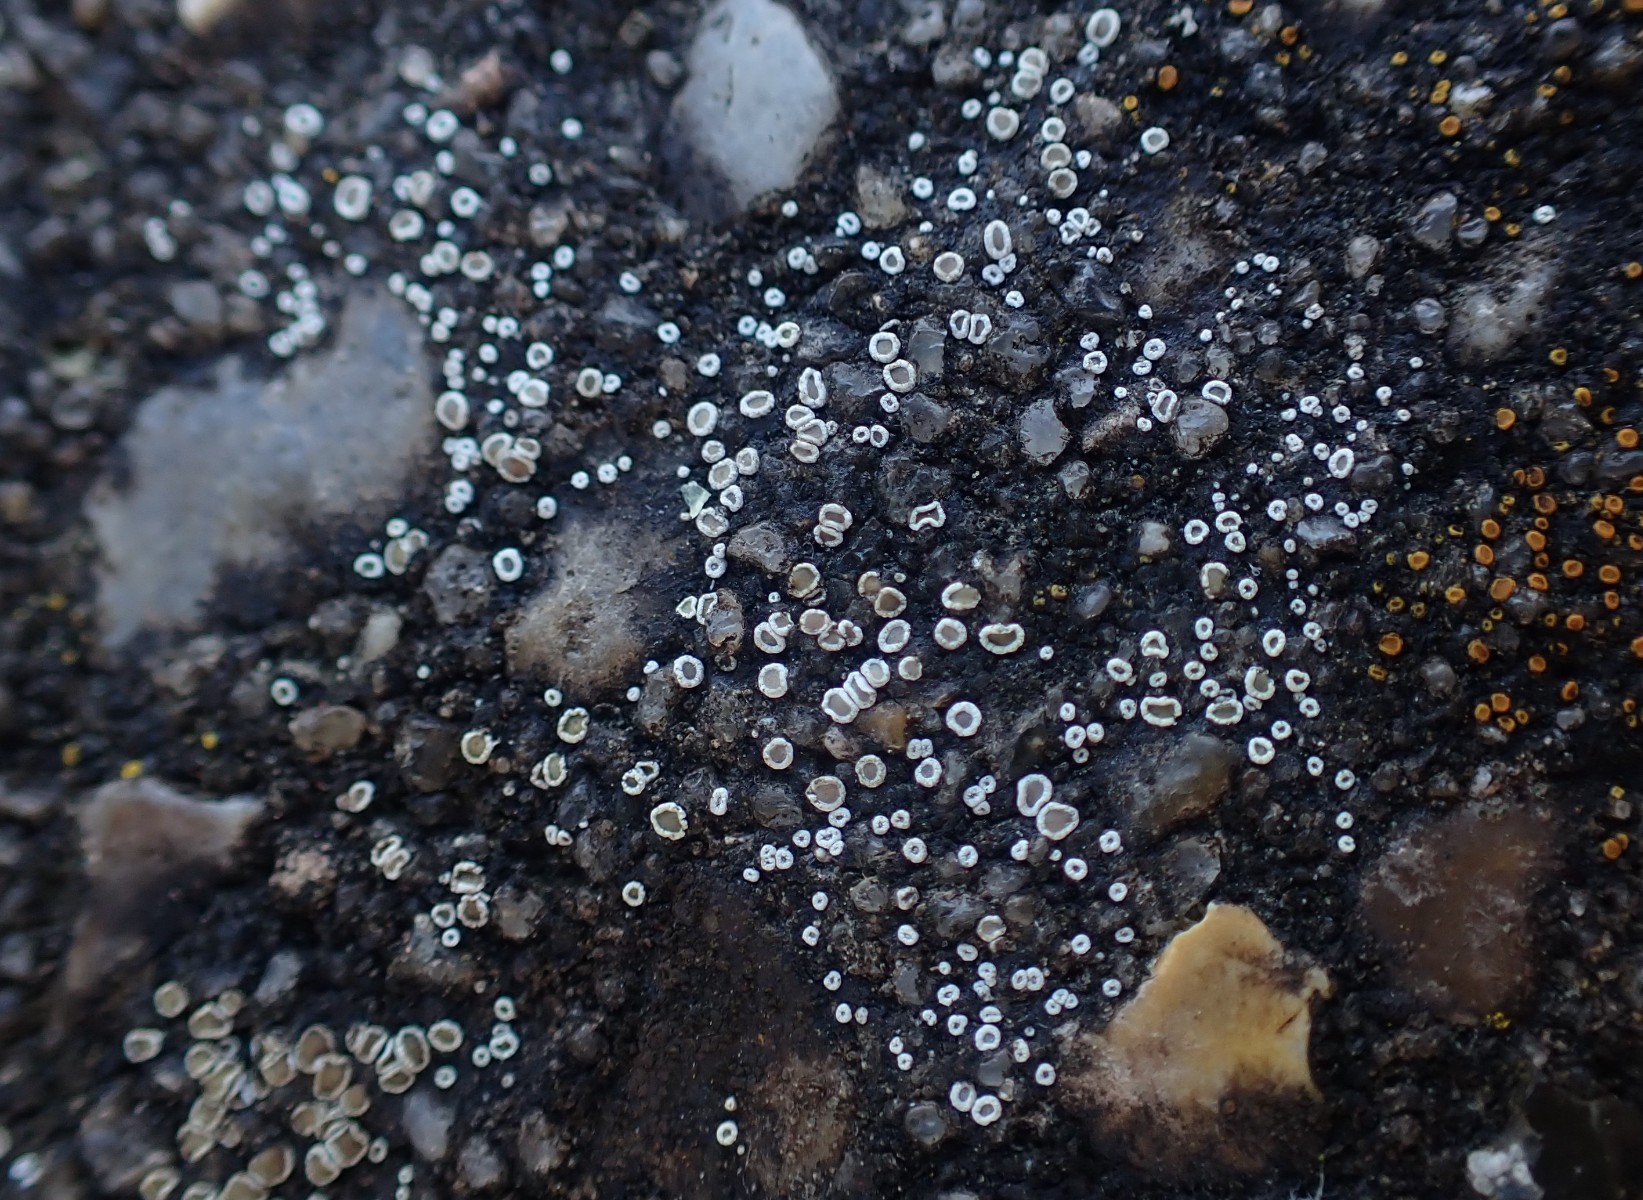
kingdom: Fungi
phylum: Ascomycota
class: Lecanoromycetes
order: Lecanorales
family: Lecanoraceae
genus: Polyozosia
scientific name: Polyozosia dispersa
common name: spredt kantskivelav
